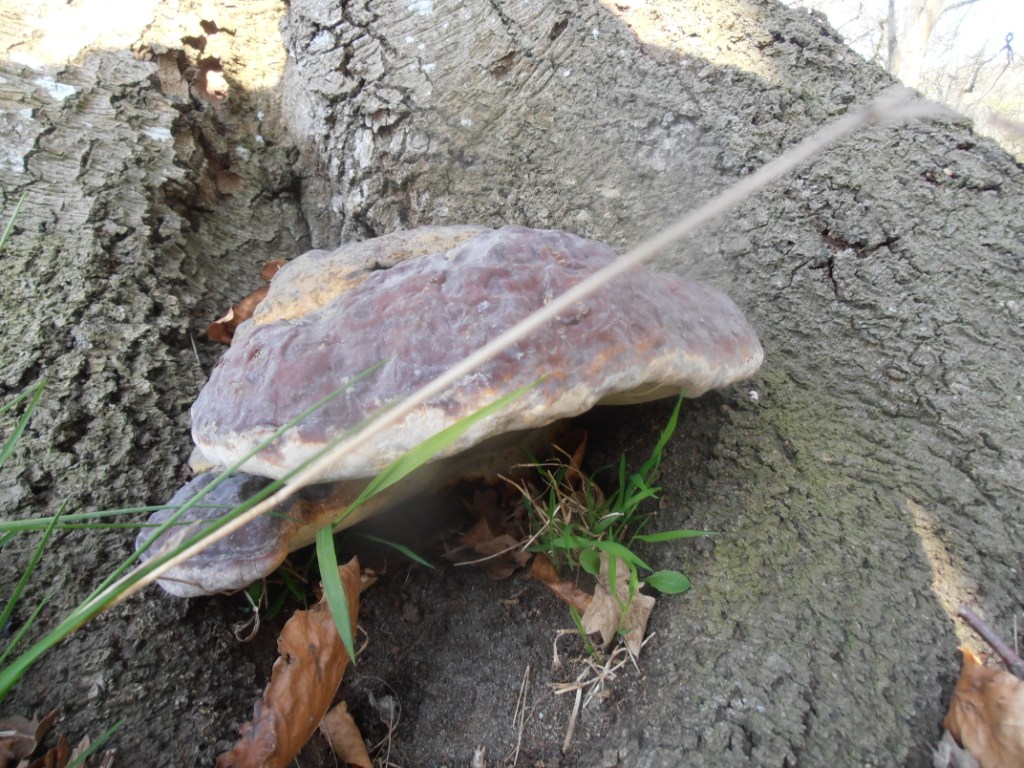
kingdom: Fungi
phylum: Basidiomycota
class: Agaricomycetes
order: Polyporales
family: Polyporaceae
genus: Ganoderma
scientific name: Ganoderma pfeifferi
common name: kobberrød lakporesvamp
